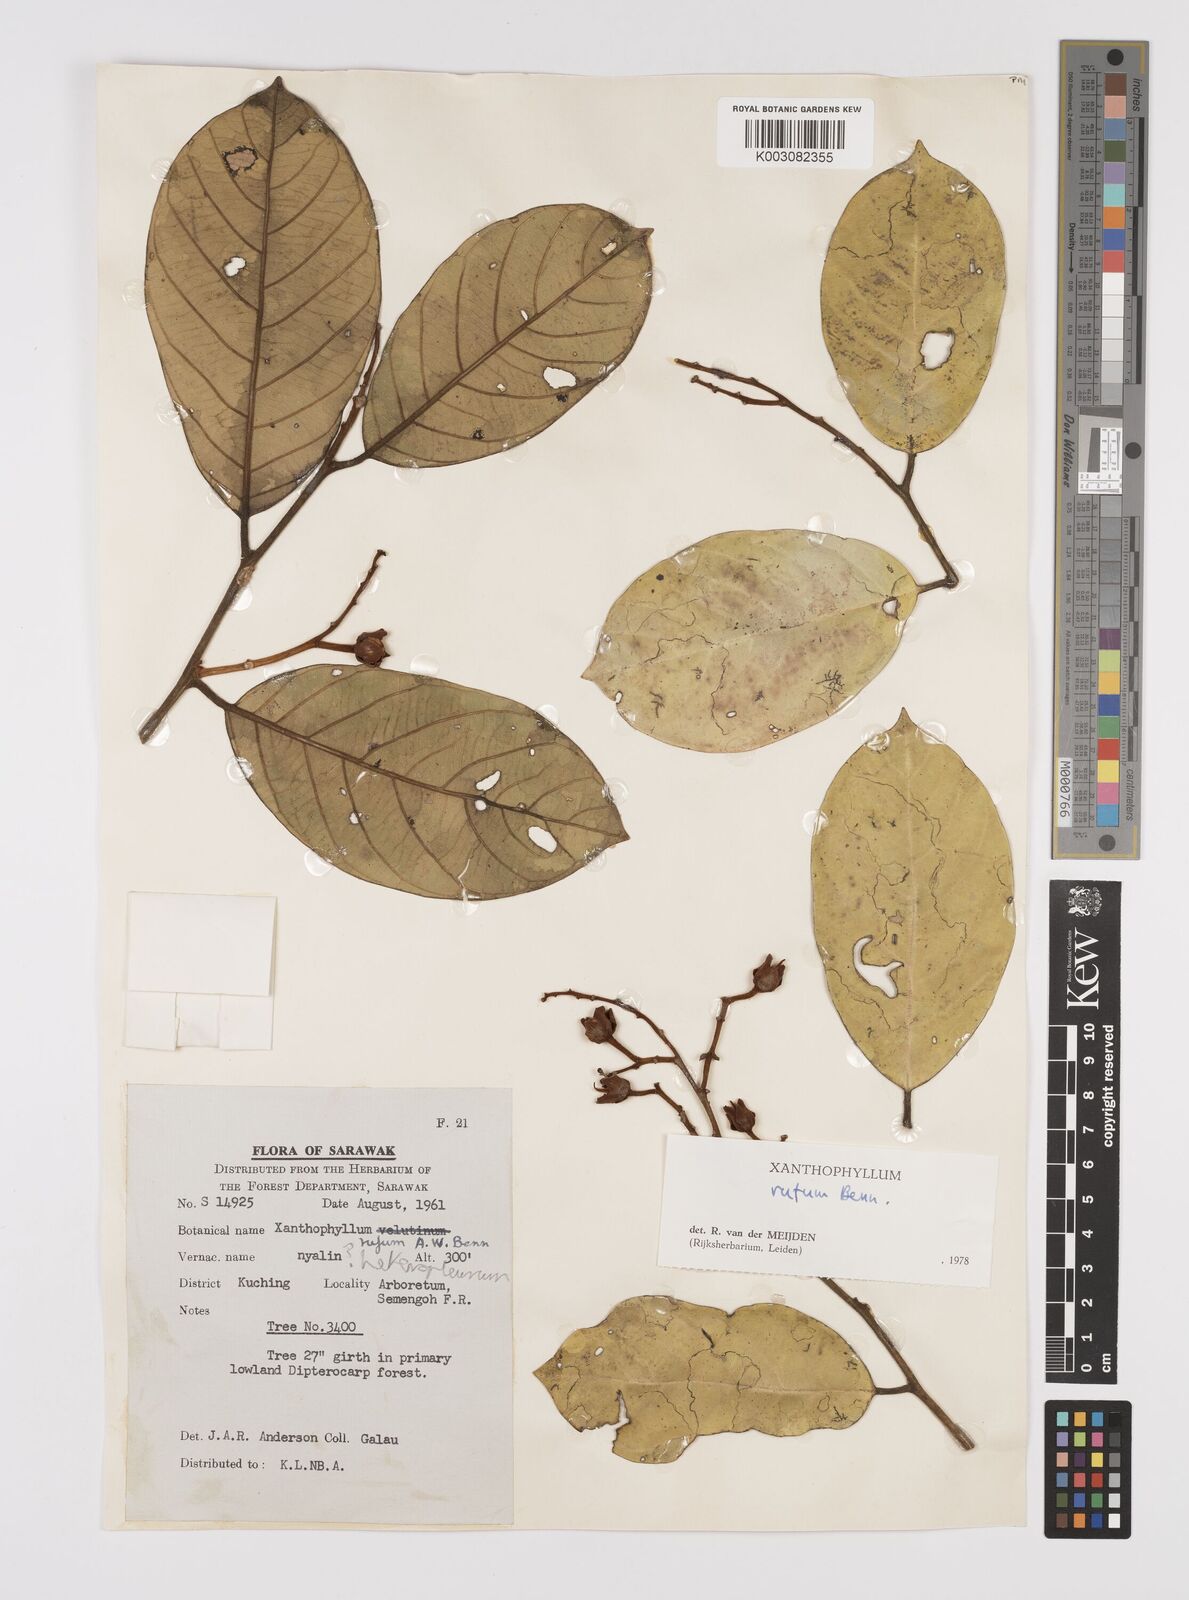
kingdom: Plantae
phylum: Tracheophyta
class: Magnoliopsida
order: Fabales
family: Polygalaceae
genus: Xanthophyllum
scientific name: Xanthophyllum rufum
